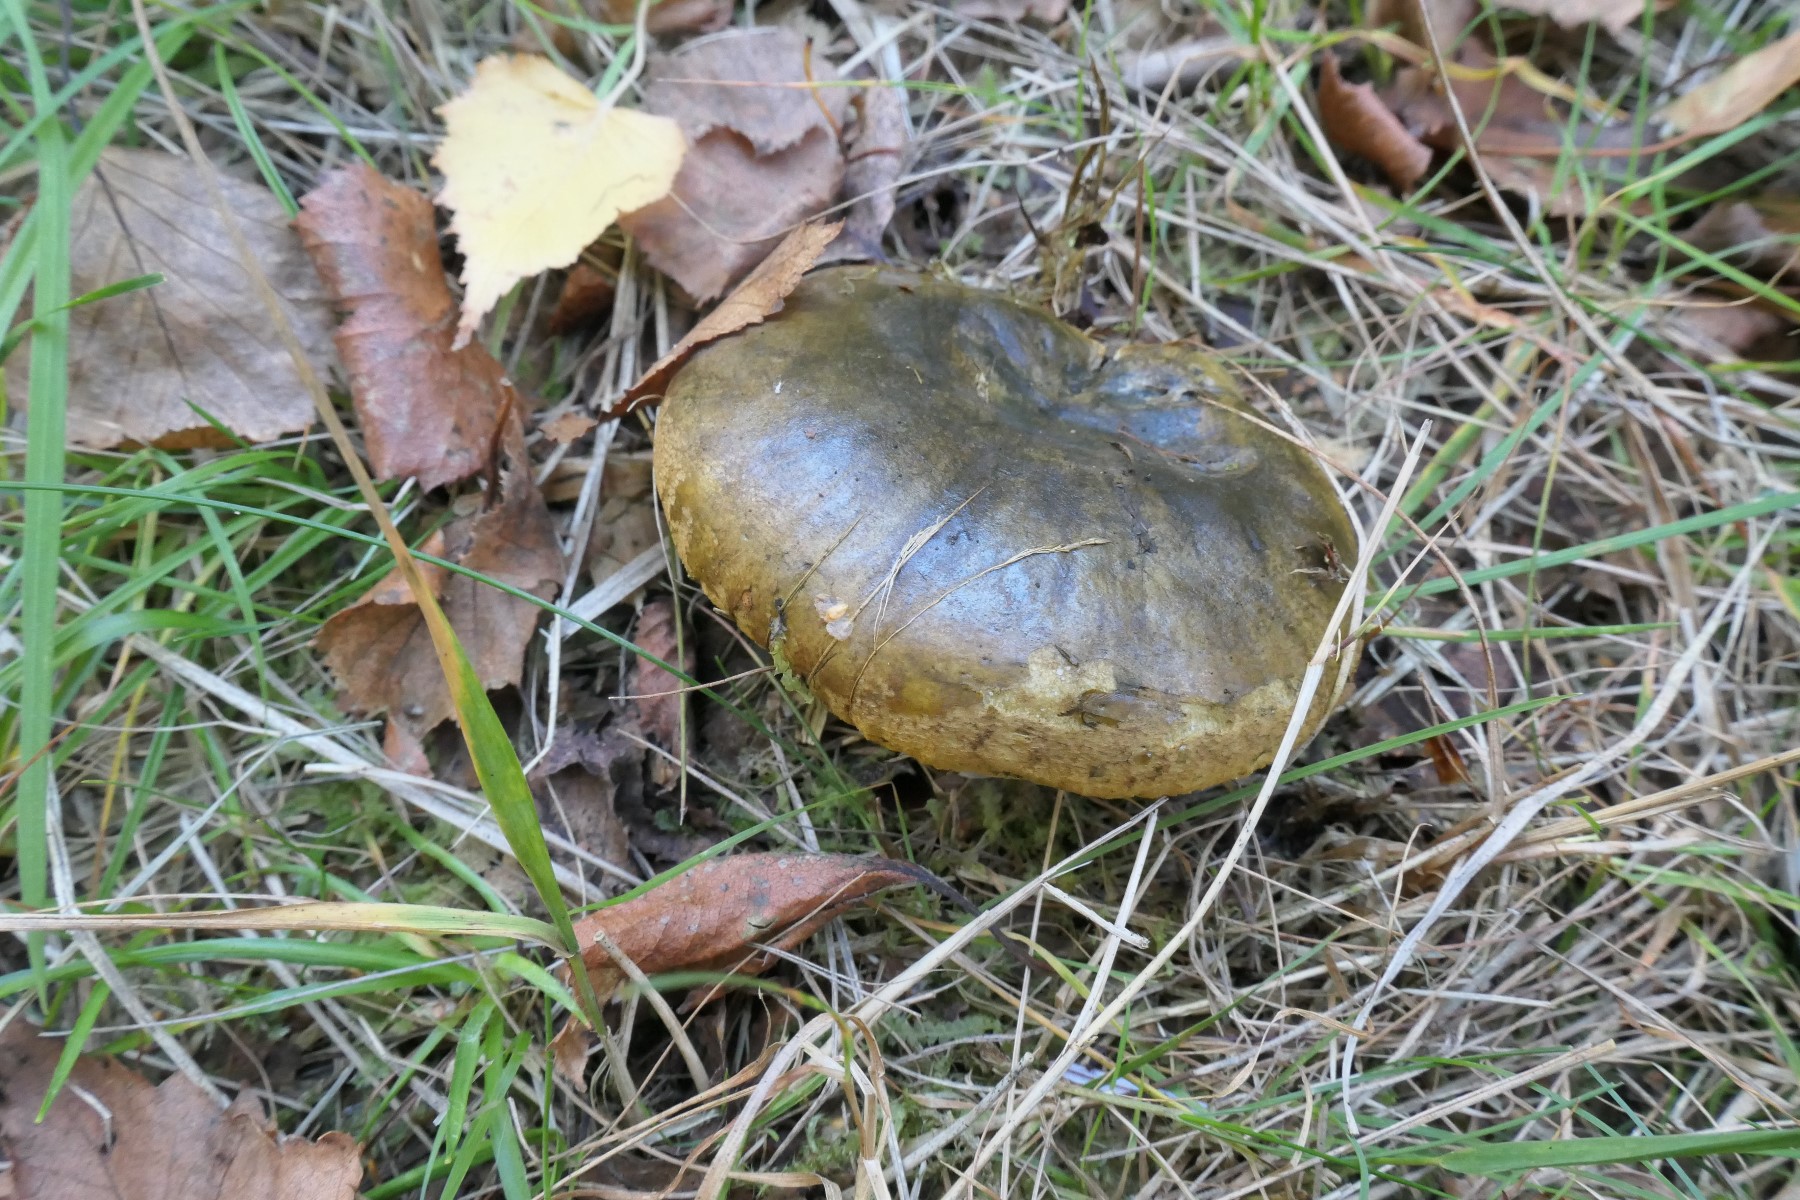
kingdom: Fungi
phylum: Basidiomycota
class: Agaricomycetes
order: Russulales
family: Russulaceae
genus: Lactarius
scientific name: Lactarius necator
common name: manddraber-mælkehat
